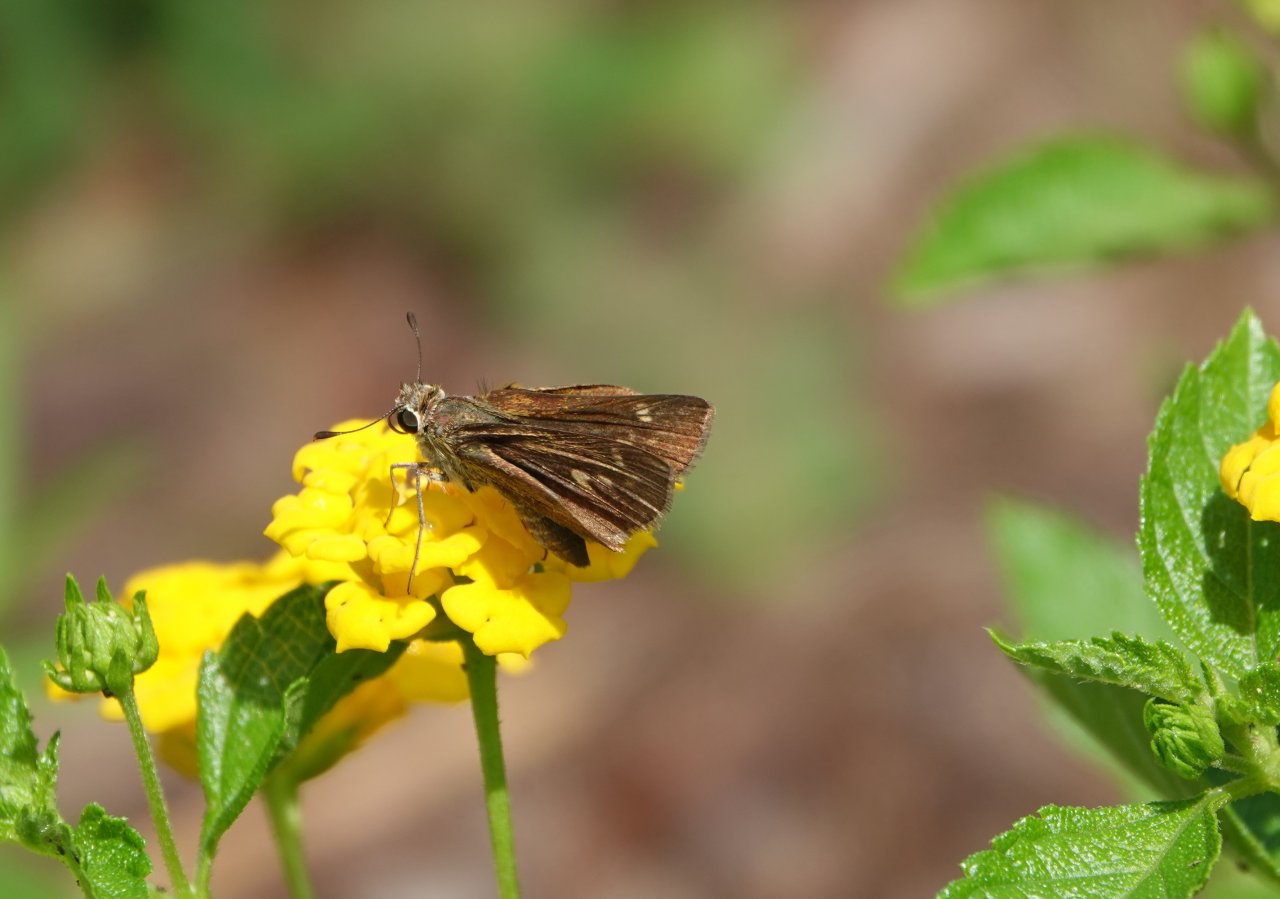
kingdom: Animalia
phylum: Arthropoda
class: Insecta
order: Lepidoptera
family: Hesperiidae
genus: Lerodea
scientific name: Lerodea eufala
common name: Eufala Skipper
